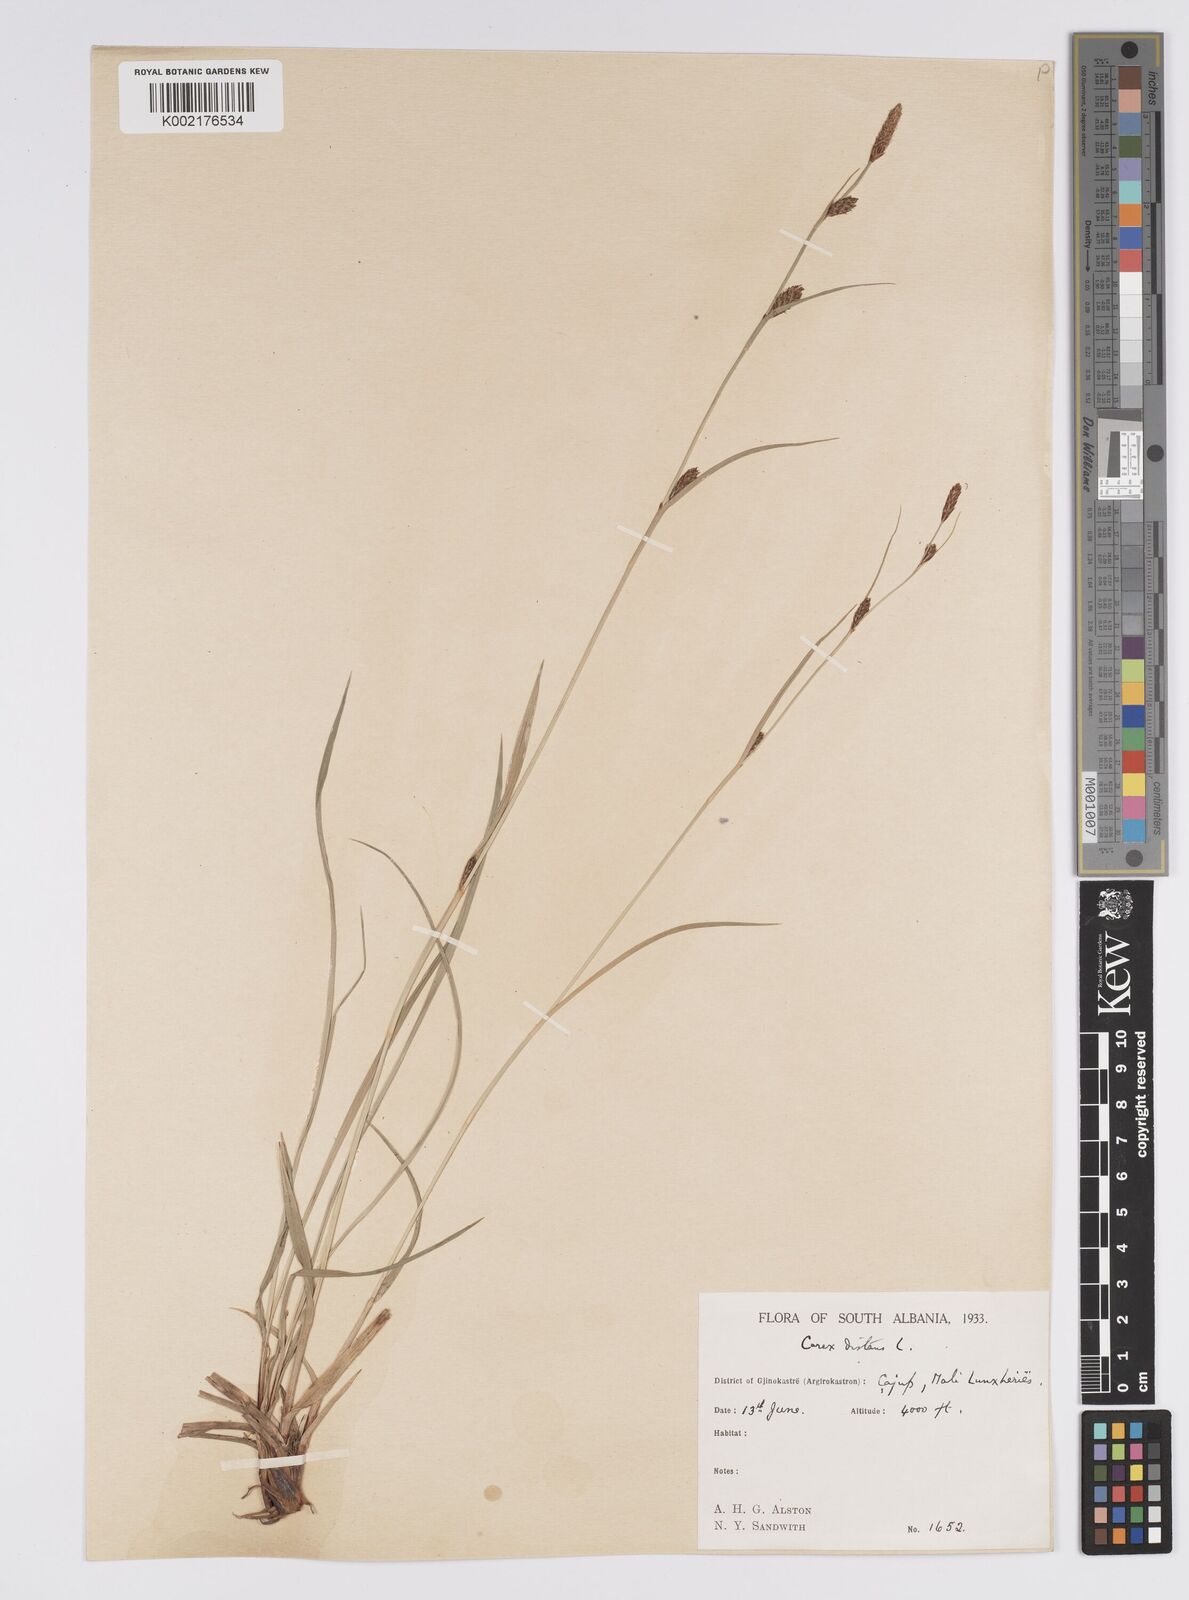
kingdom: Plantae
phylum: Tracheophyta
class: Liliopsida
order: Poales
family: Cyperaceae
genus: Carex
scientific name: Carex distans
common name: Distant sedge
